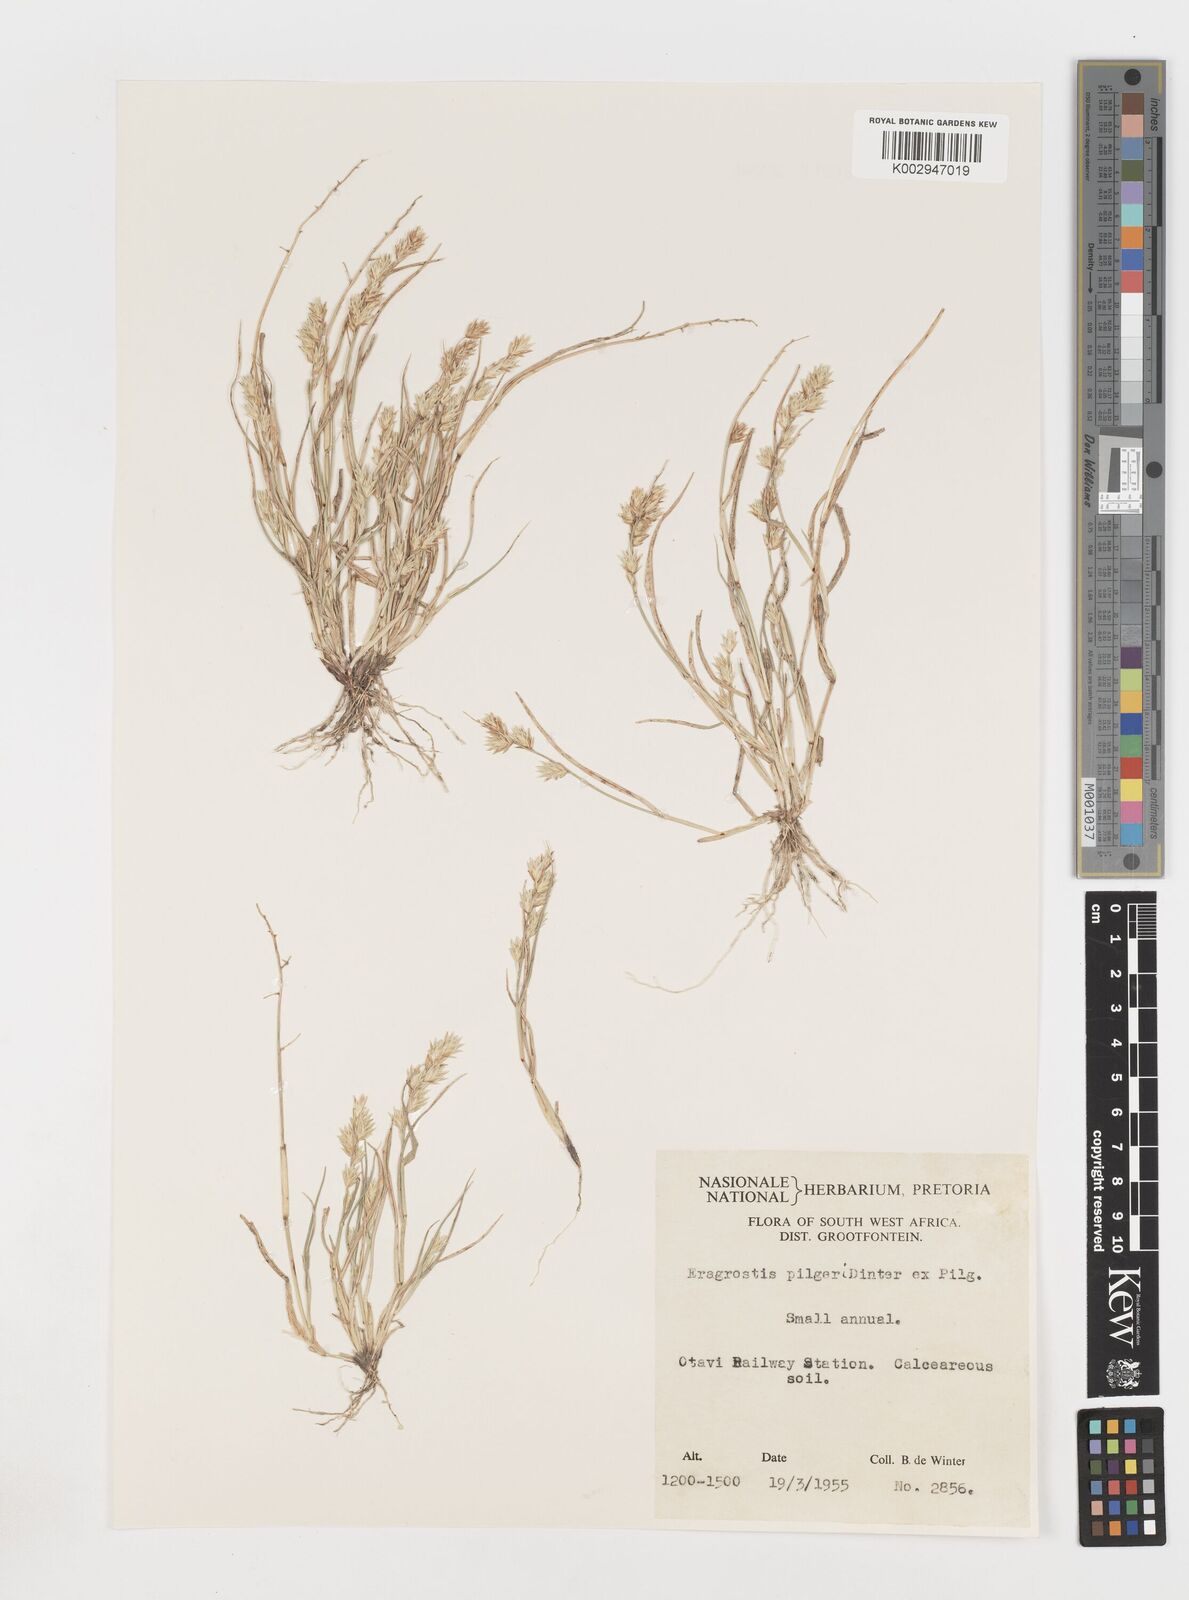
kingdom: Plantae
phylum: Tracheophyta
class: Liliopsida
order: Poales
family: Poaceae
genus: Eragrostis
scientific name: Eragrostis pilgeriana
